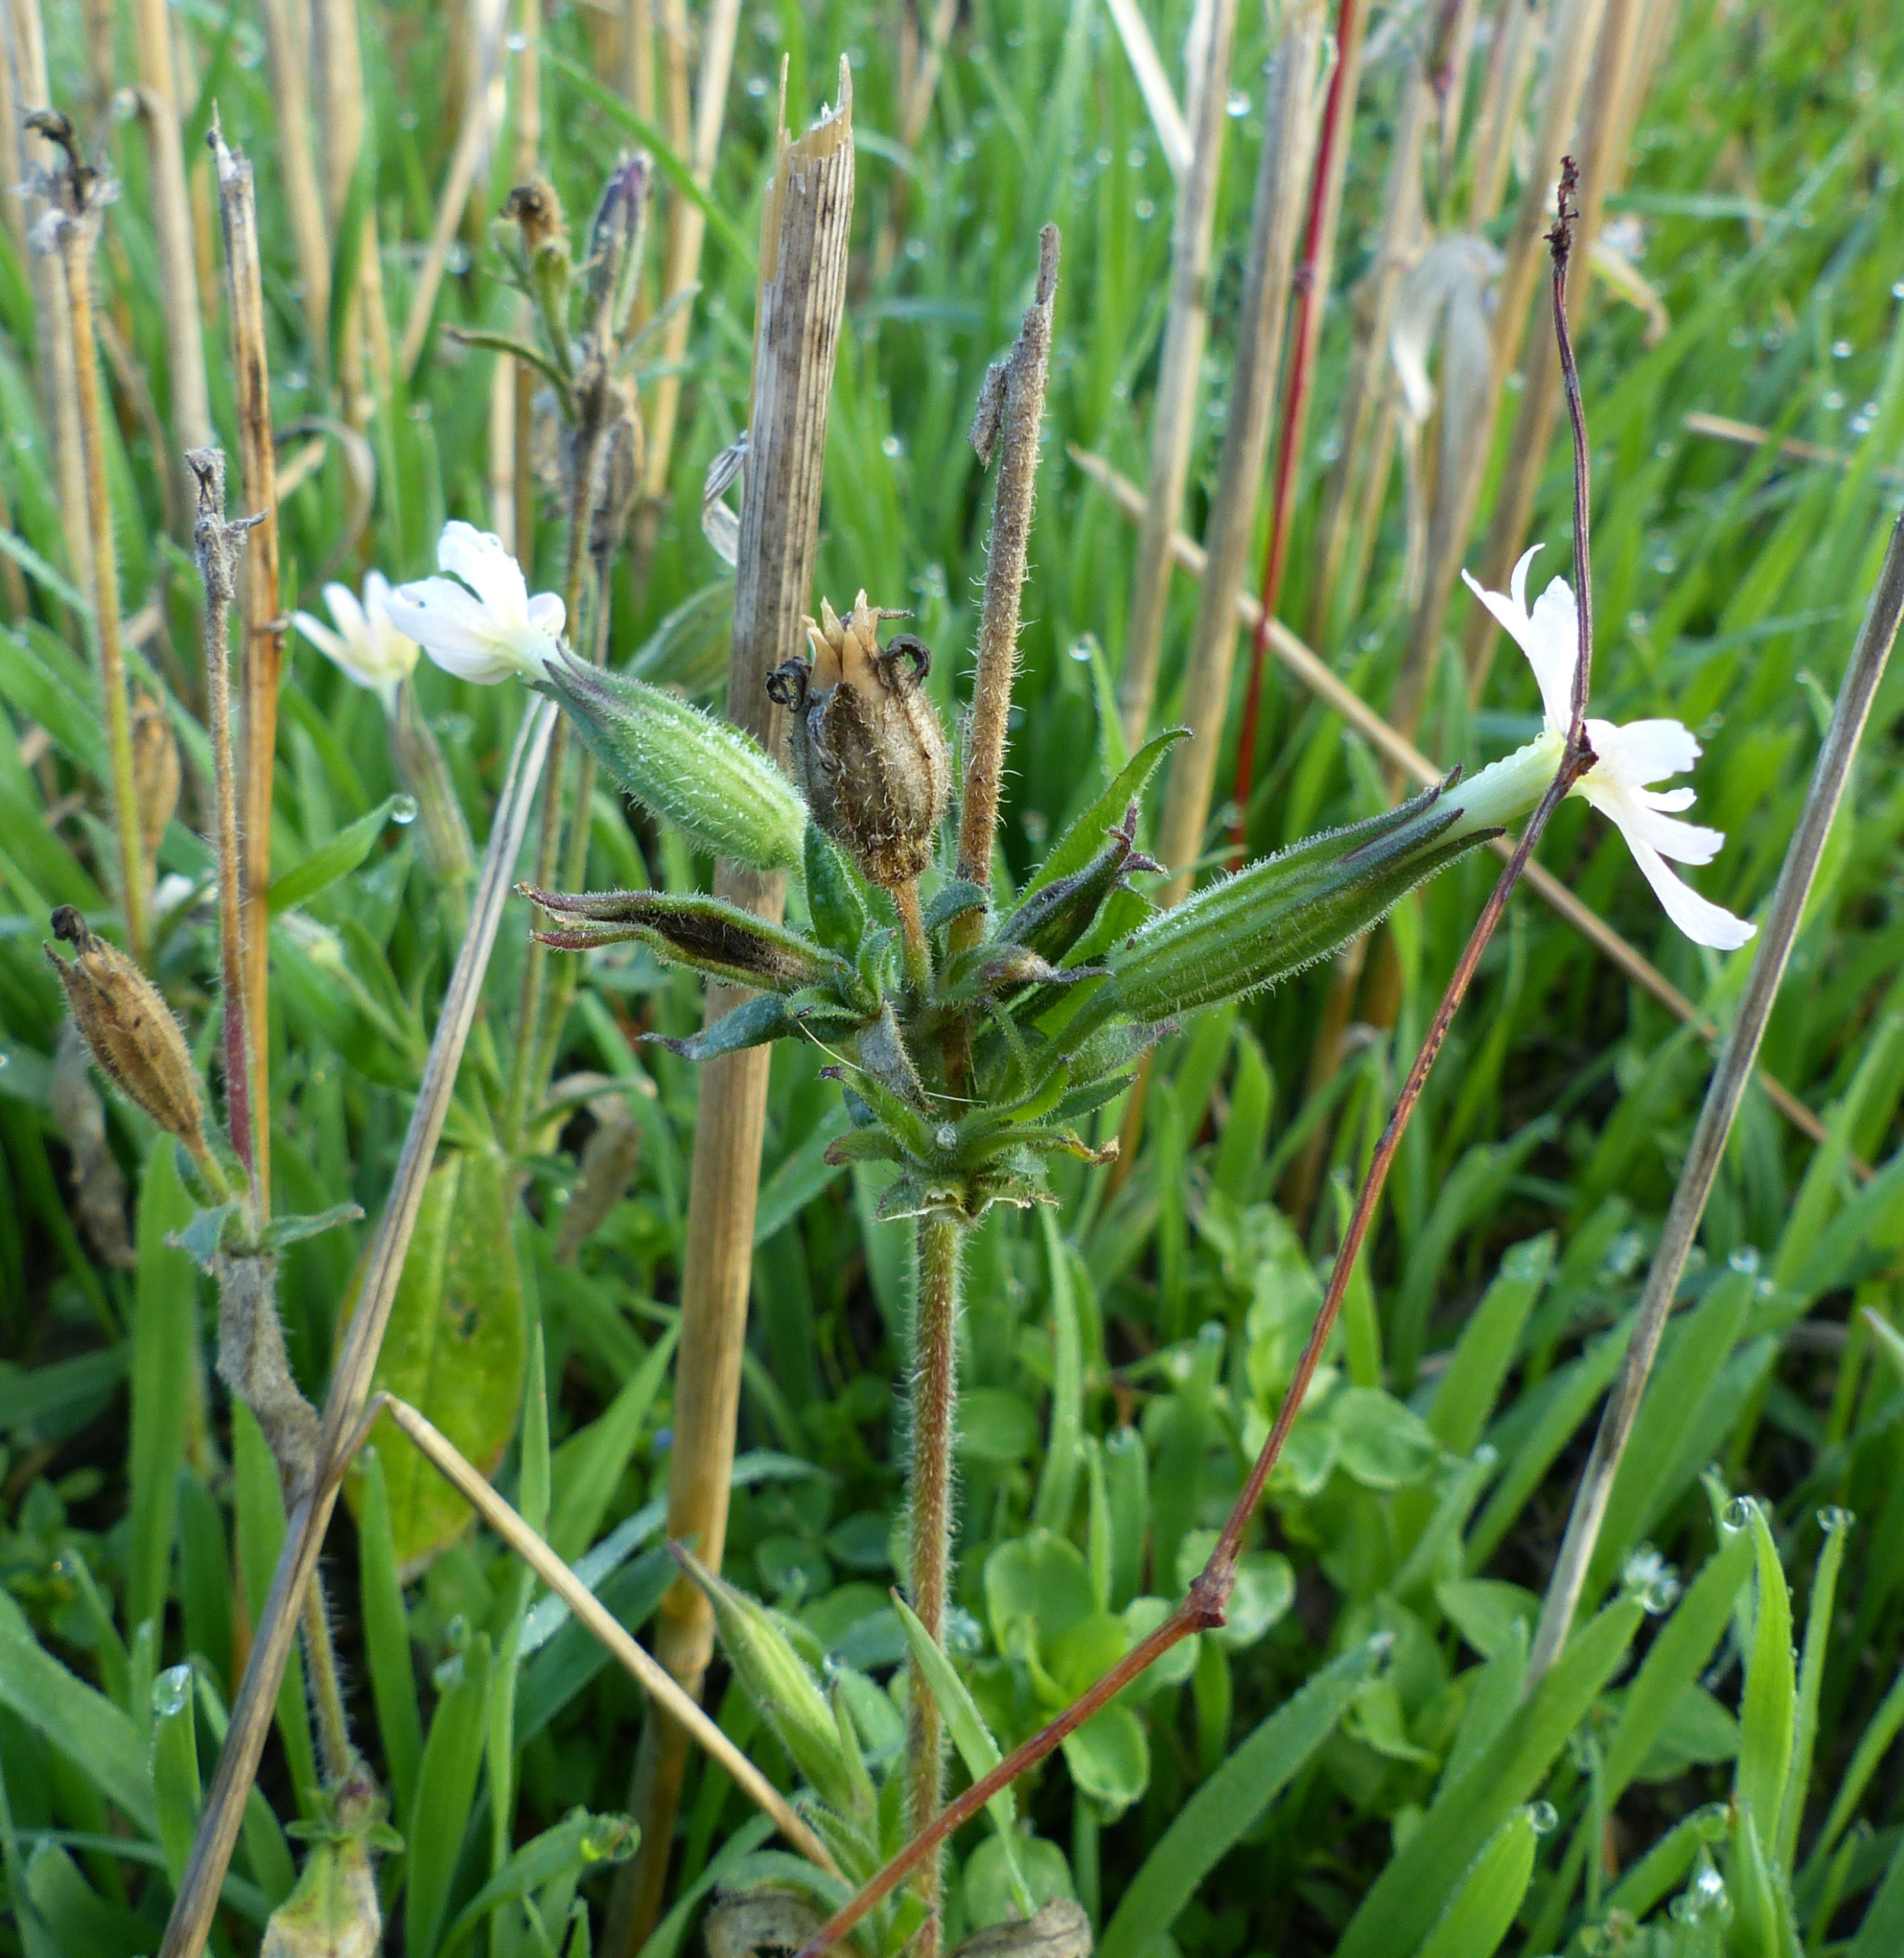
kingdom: Plantae
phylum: Tracheophyta
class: Magnoliopsida
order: Caryophyllales
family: Caryophyllaceae
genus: Silene
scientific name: Silene noctiflora
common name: Nat-limurt
